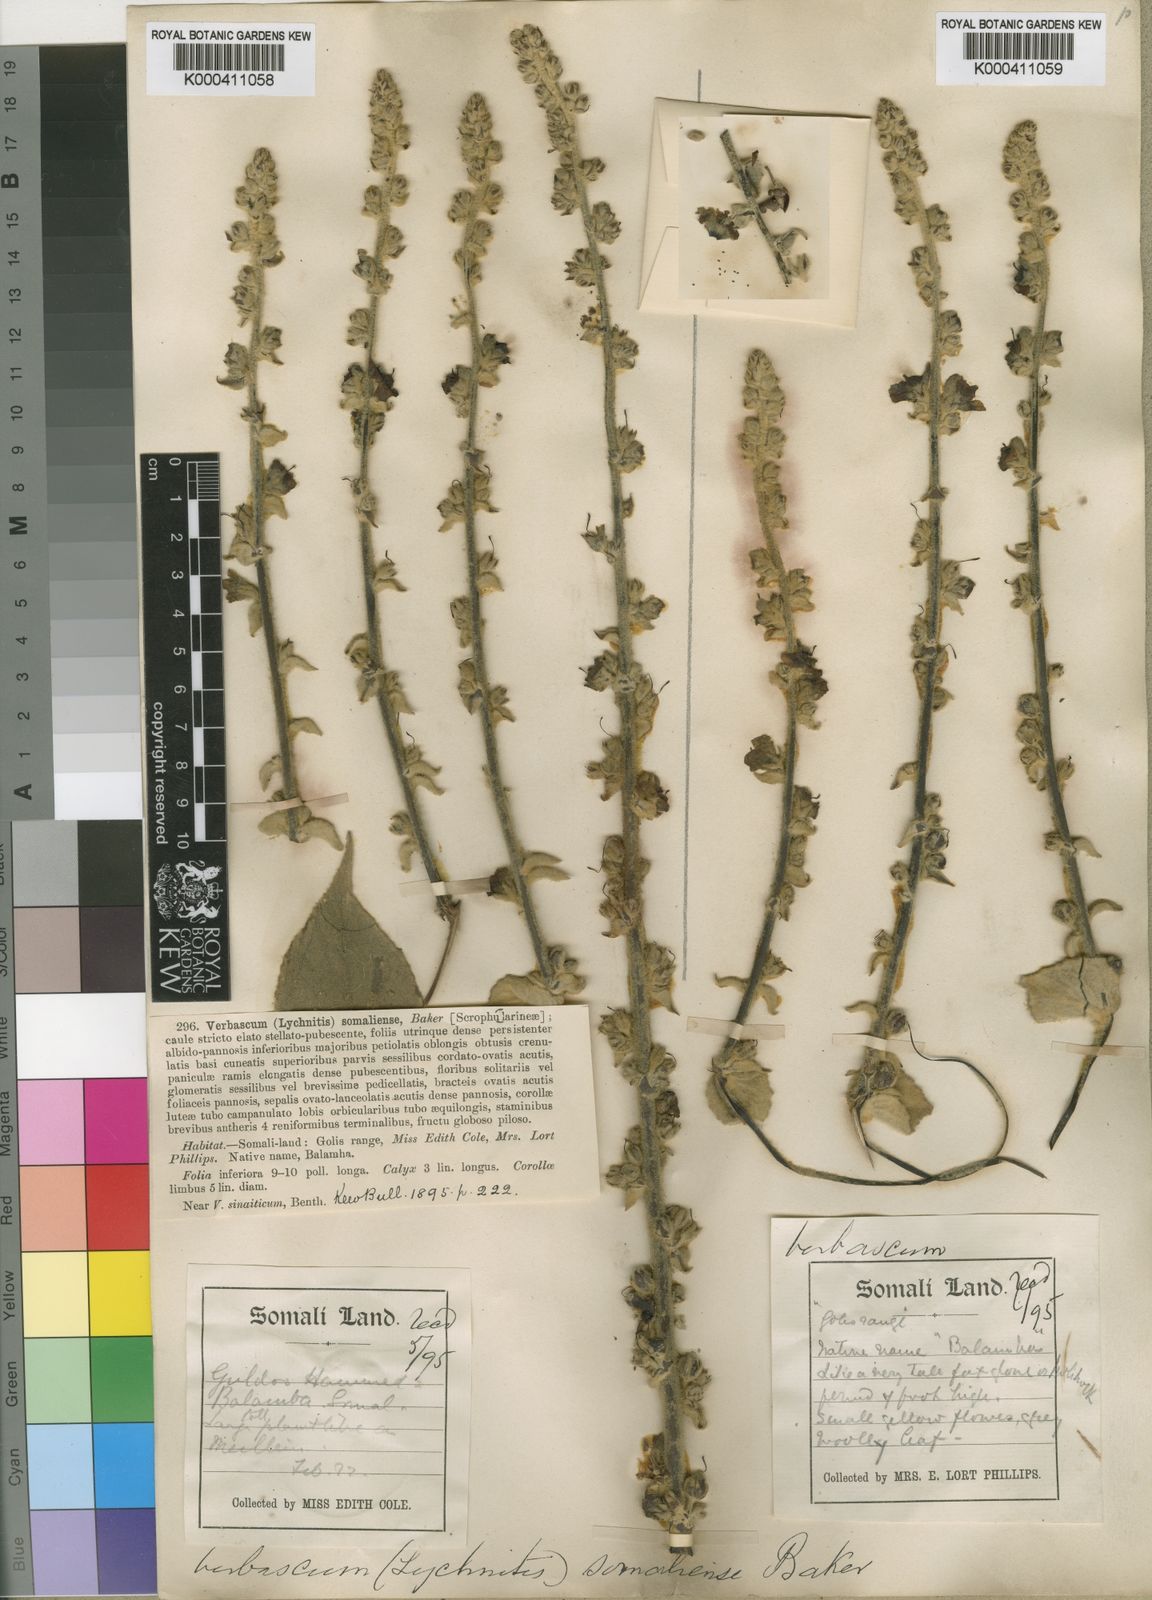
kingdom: Plantae
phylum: Tracheophyta
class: Magnoliopsida
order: Lamiales
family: Scrophulariaceae
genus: Verbascum
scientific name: Verbascum sinaiticum
